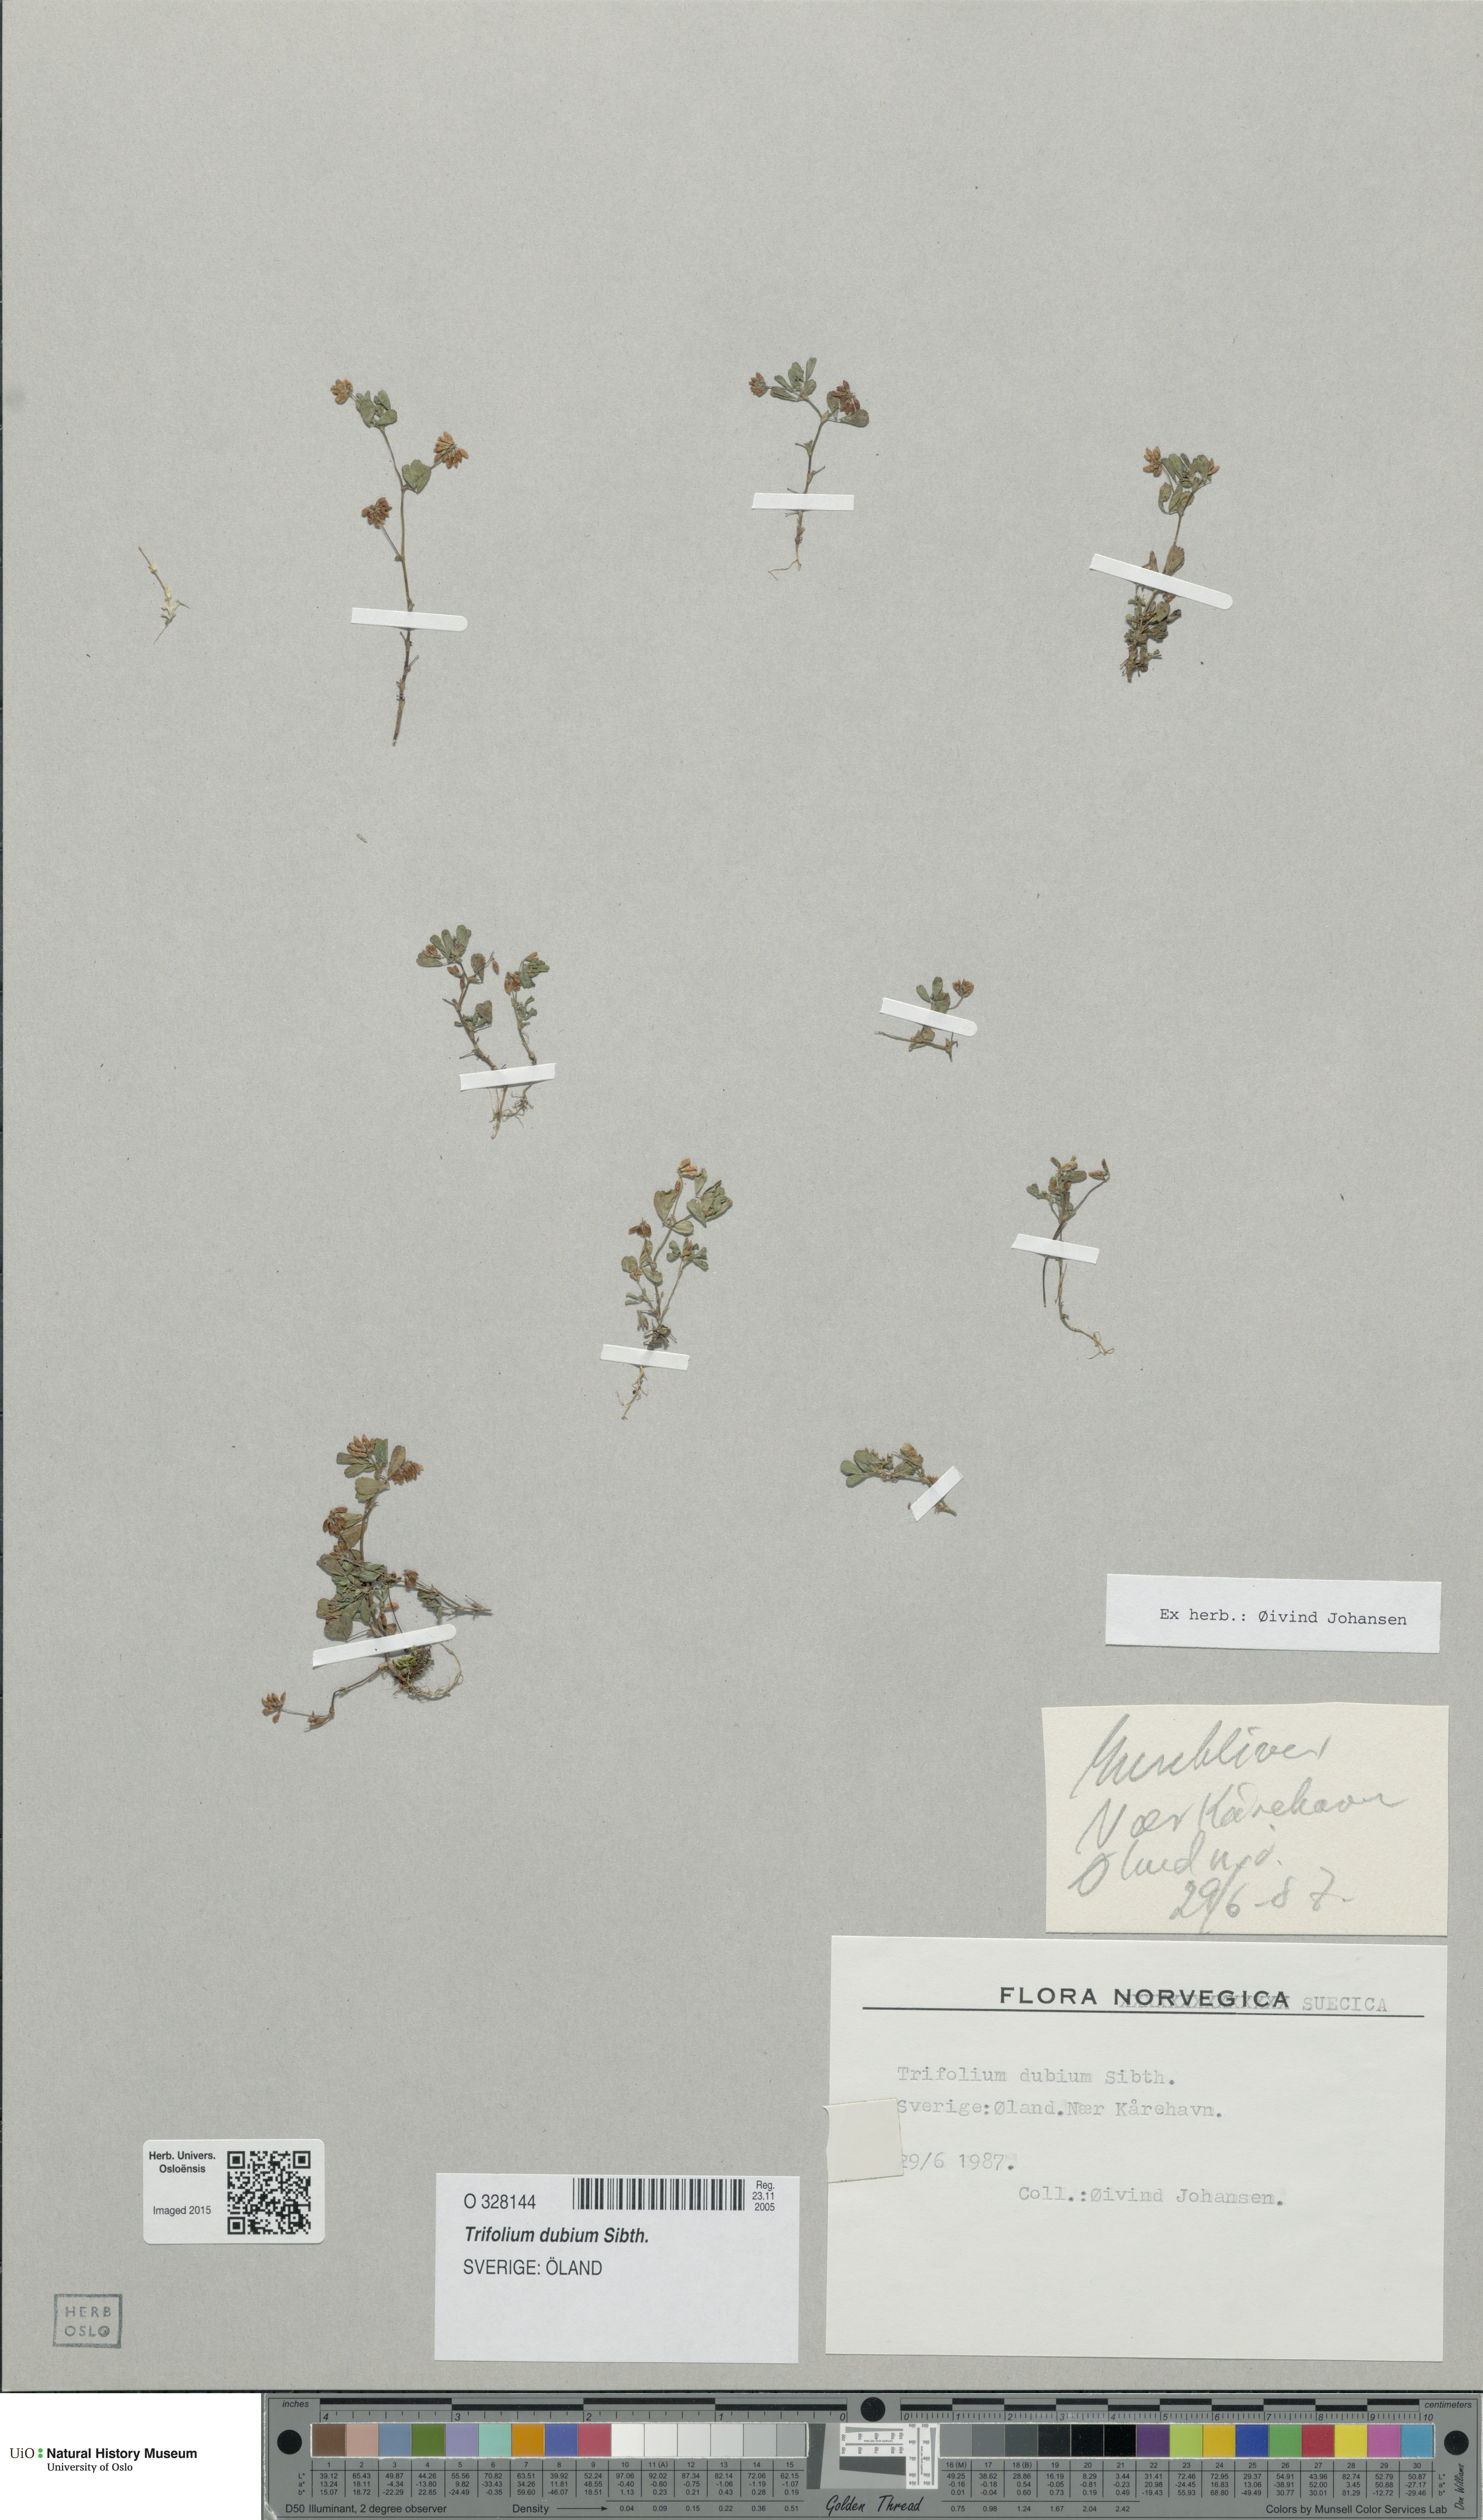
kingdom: Plantae
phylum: Tracheophyta
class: Magnoliopsida
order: Fabales
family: Fabaceae
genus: Trifolium
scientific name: Trifolium dubium
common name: Suckling clover
